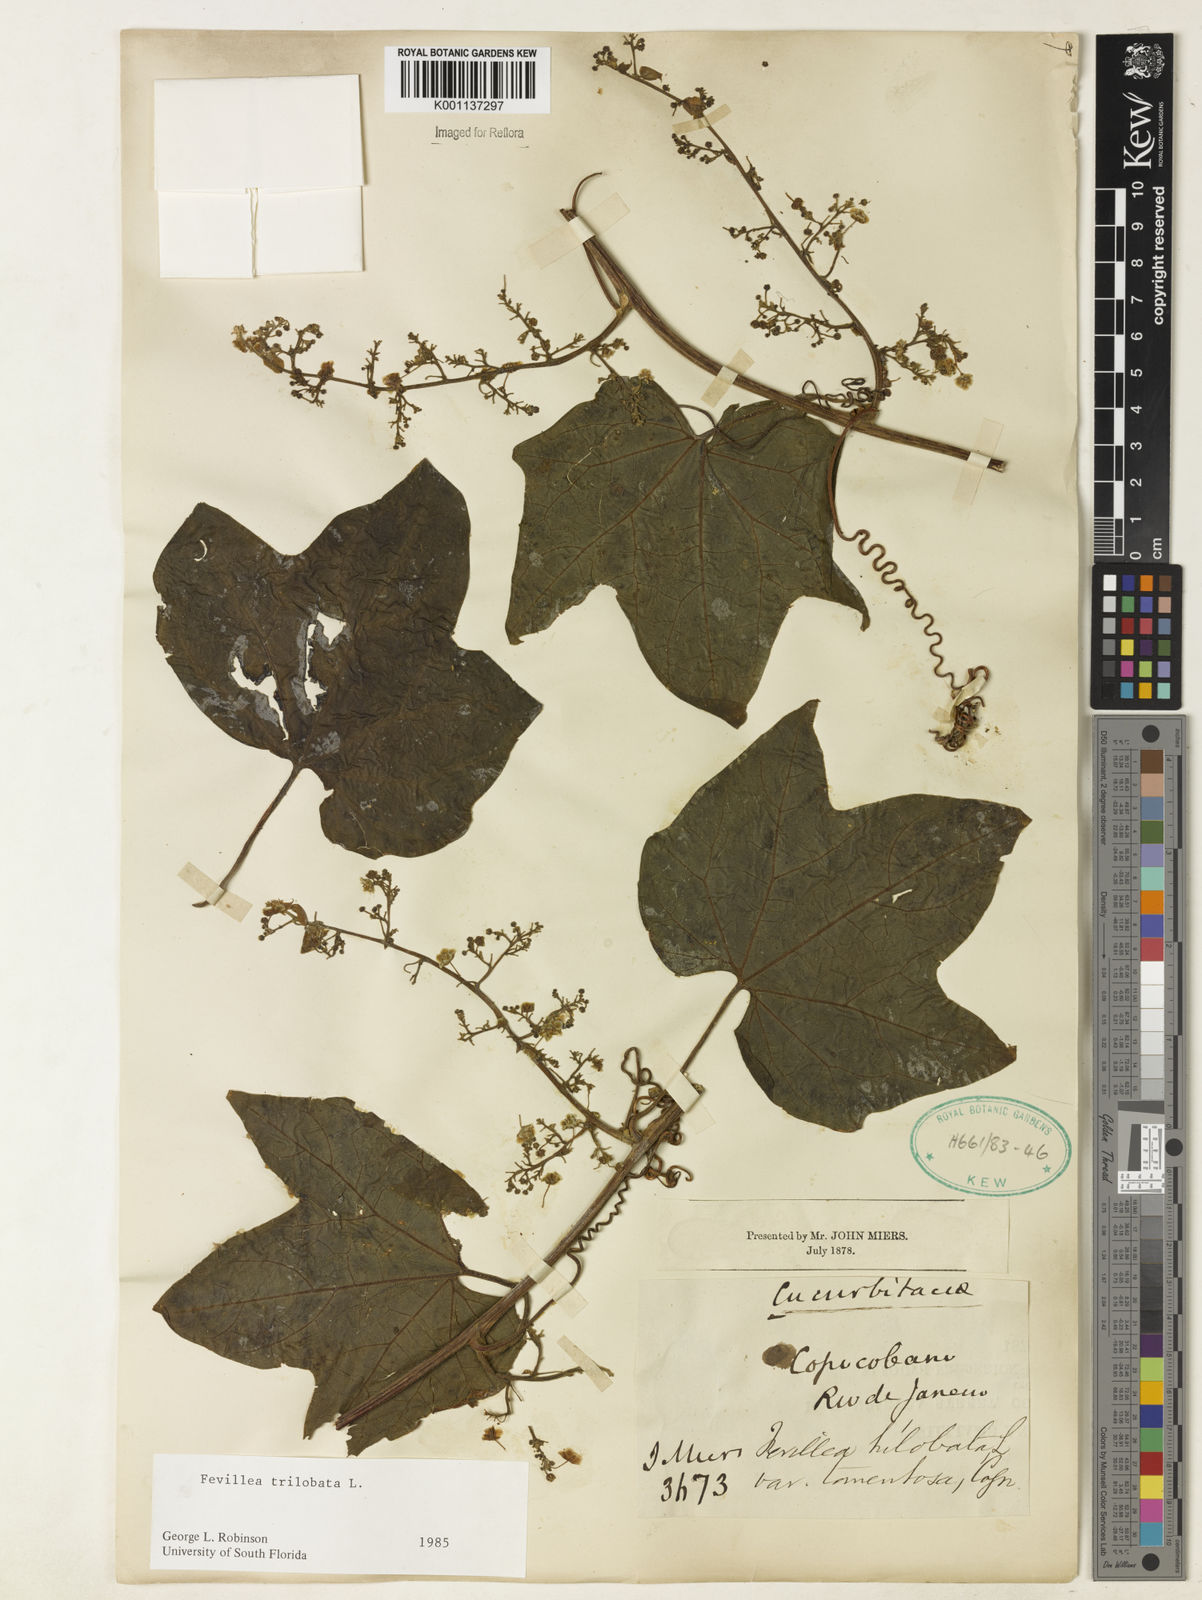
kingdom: Plantae
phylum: Tracheophyta
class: Magnoliopsida
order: Cucurbitales
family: Cucurbitaceae
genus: Fevillea
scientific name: Fevillea trilobata
